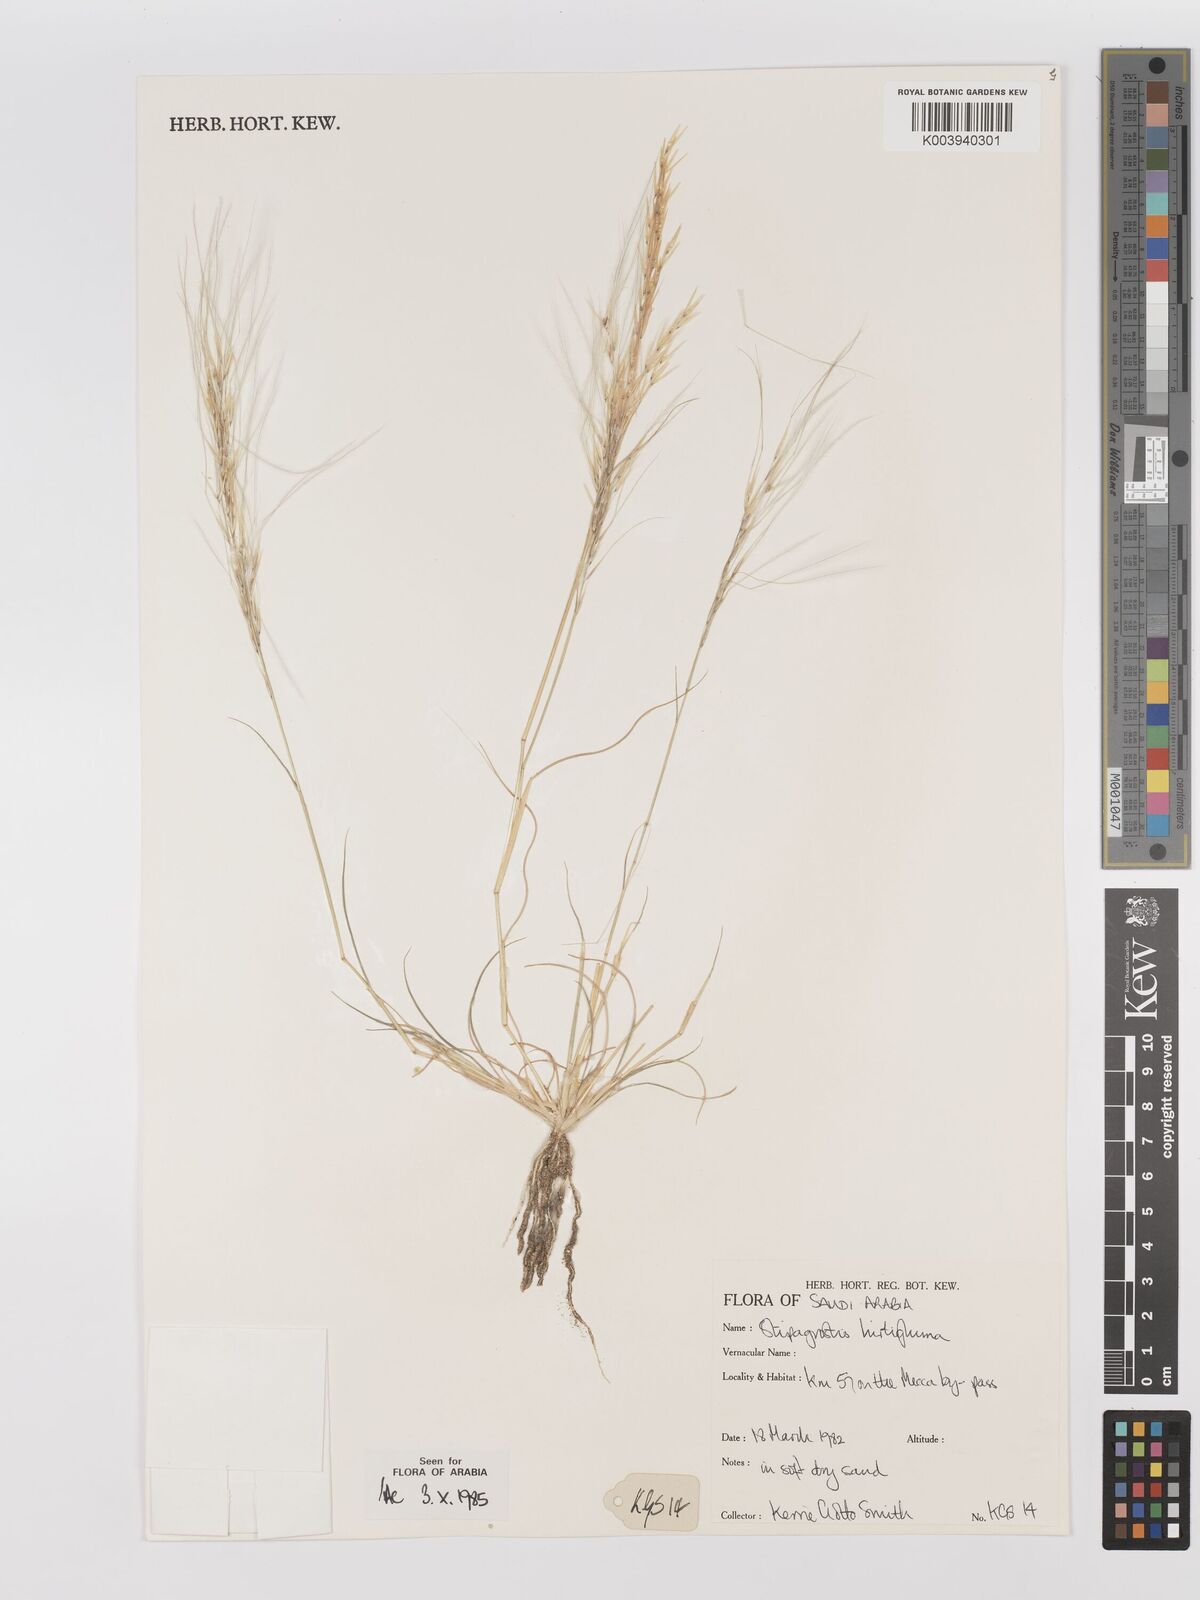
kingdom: Plantae
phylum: Tracheophyta
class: Liliopsida
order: Poales
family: Poaceae
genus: Stipagrostis
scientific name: Stipagrostis hirtigluma
